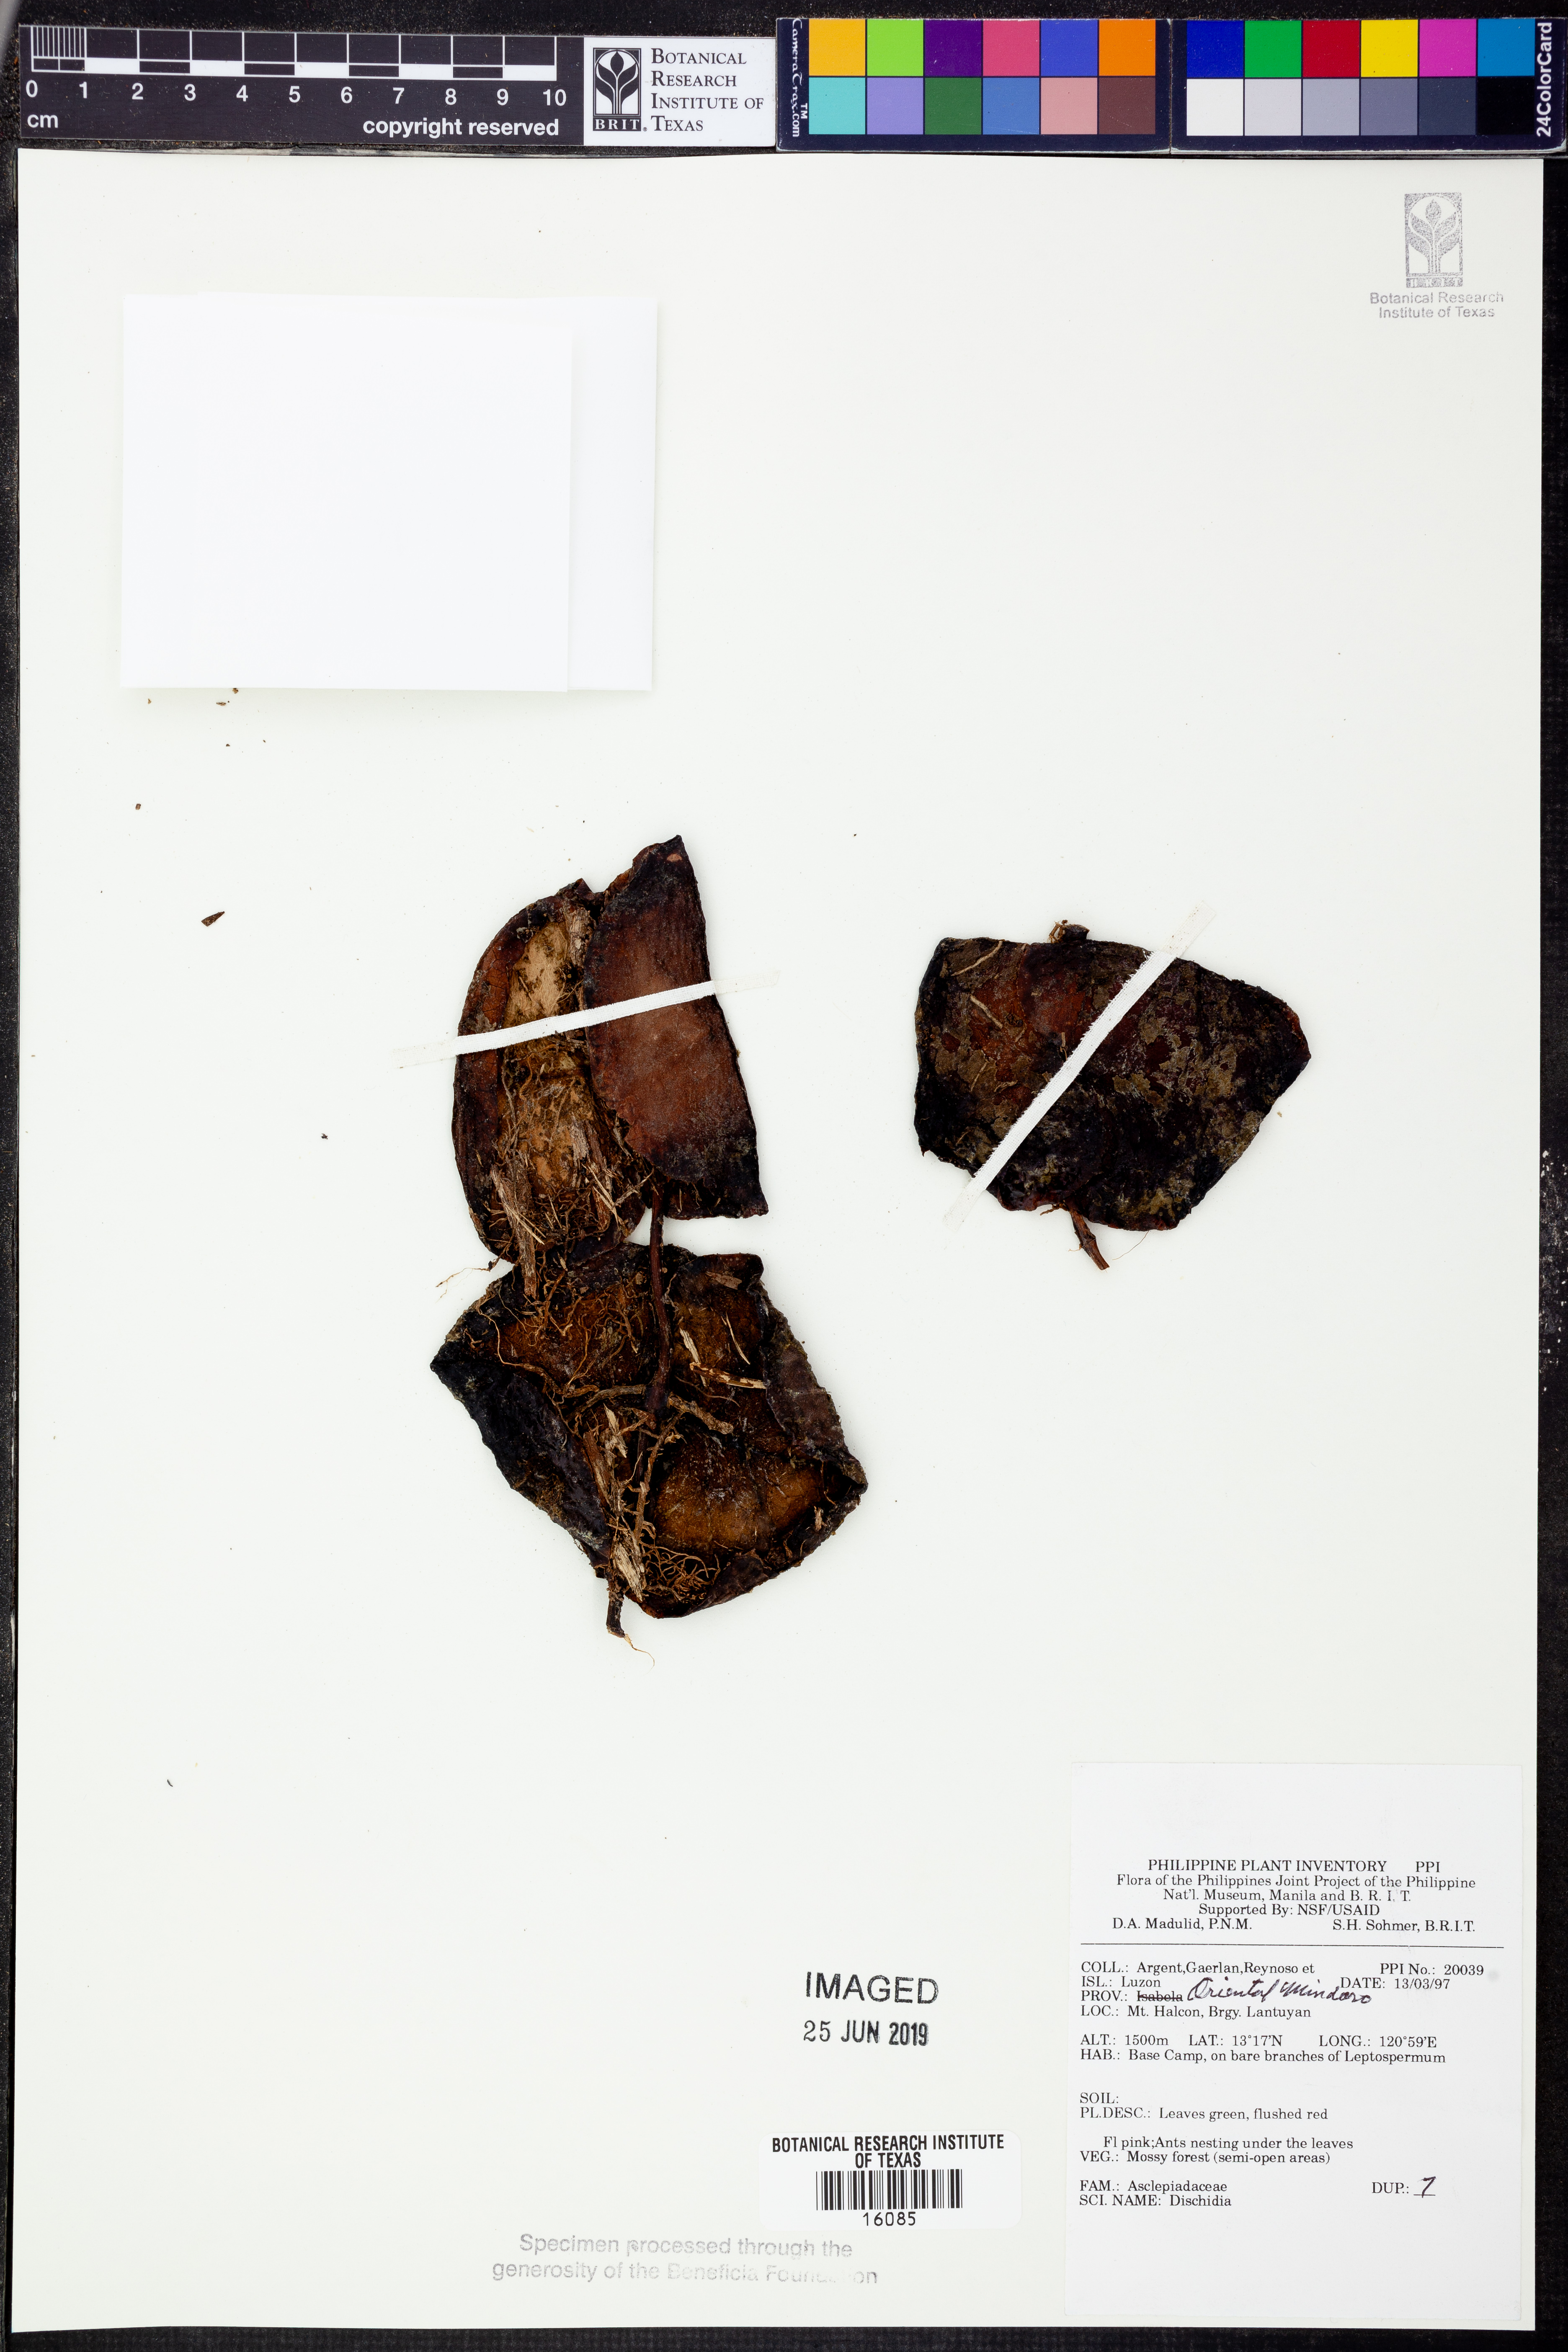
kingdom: Plantae
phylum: Tracheophyta
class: Magnoliopsida
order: Gentianales
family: Apocynaceae
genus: Dischidia
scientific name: Dischidia
